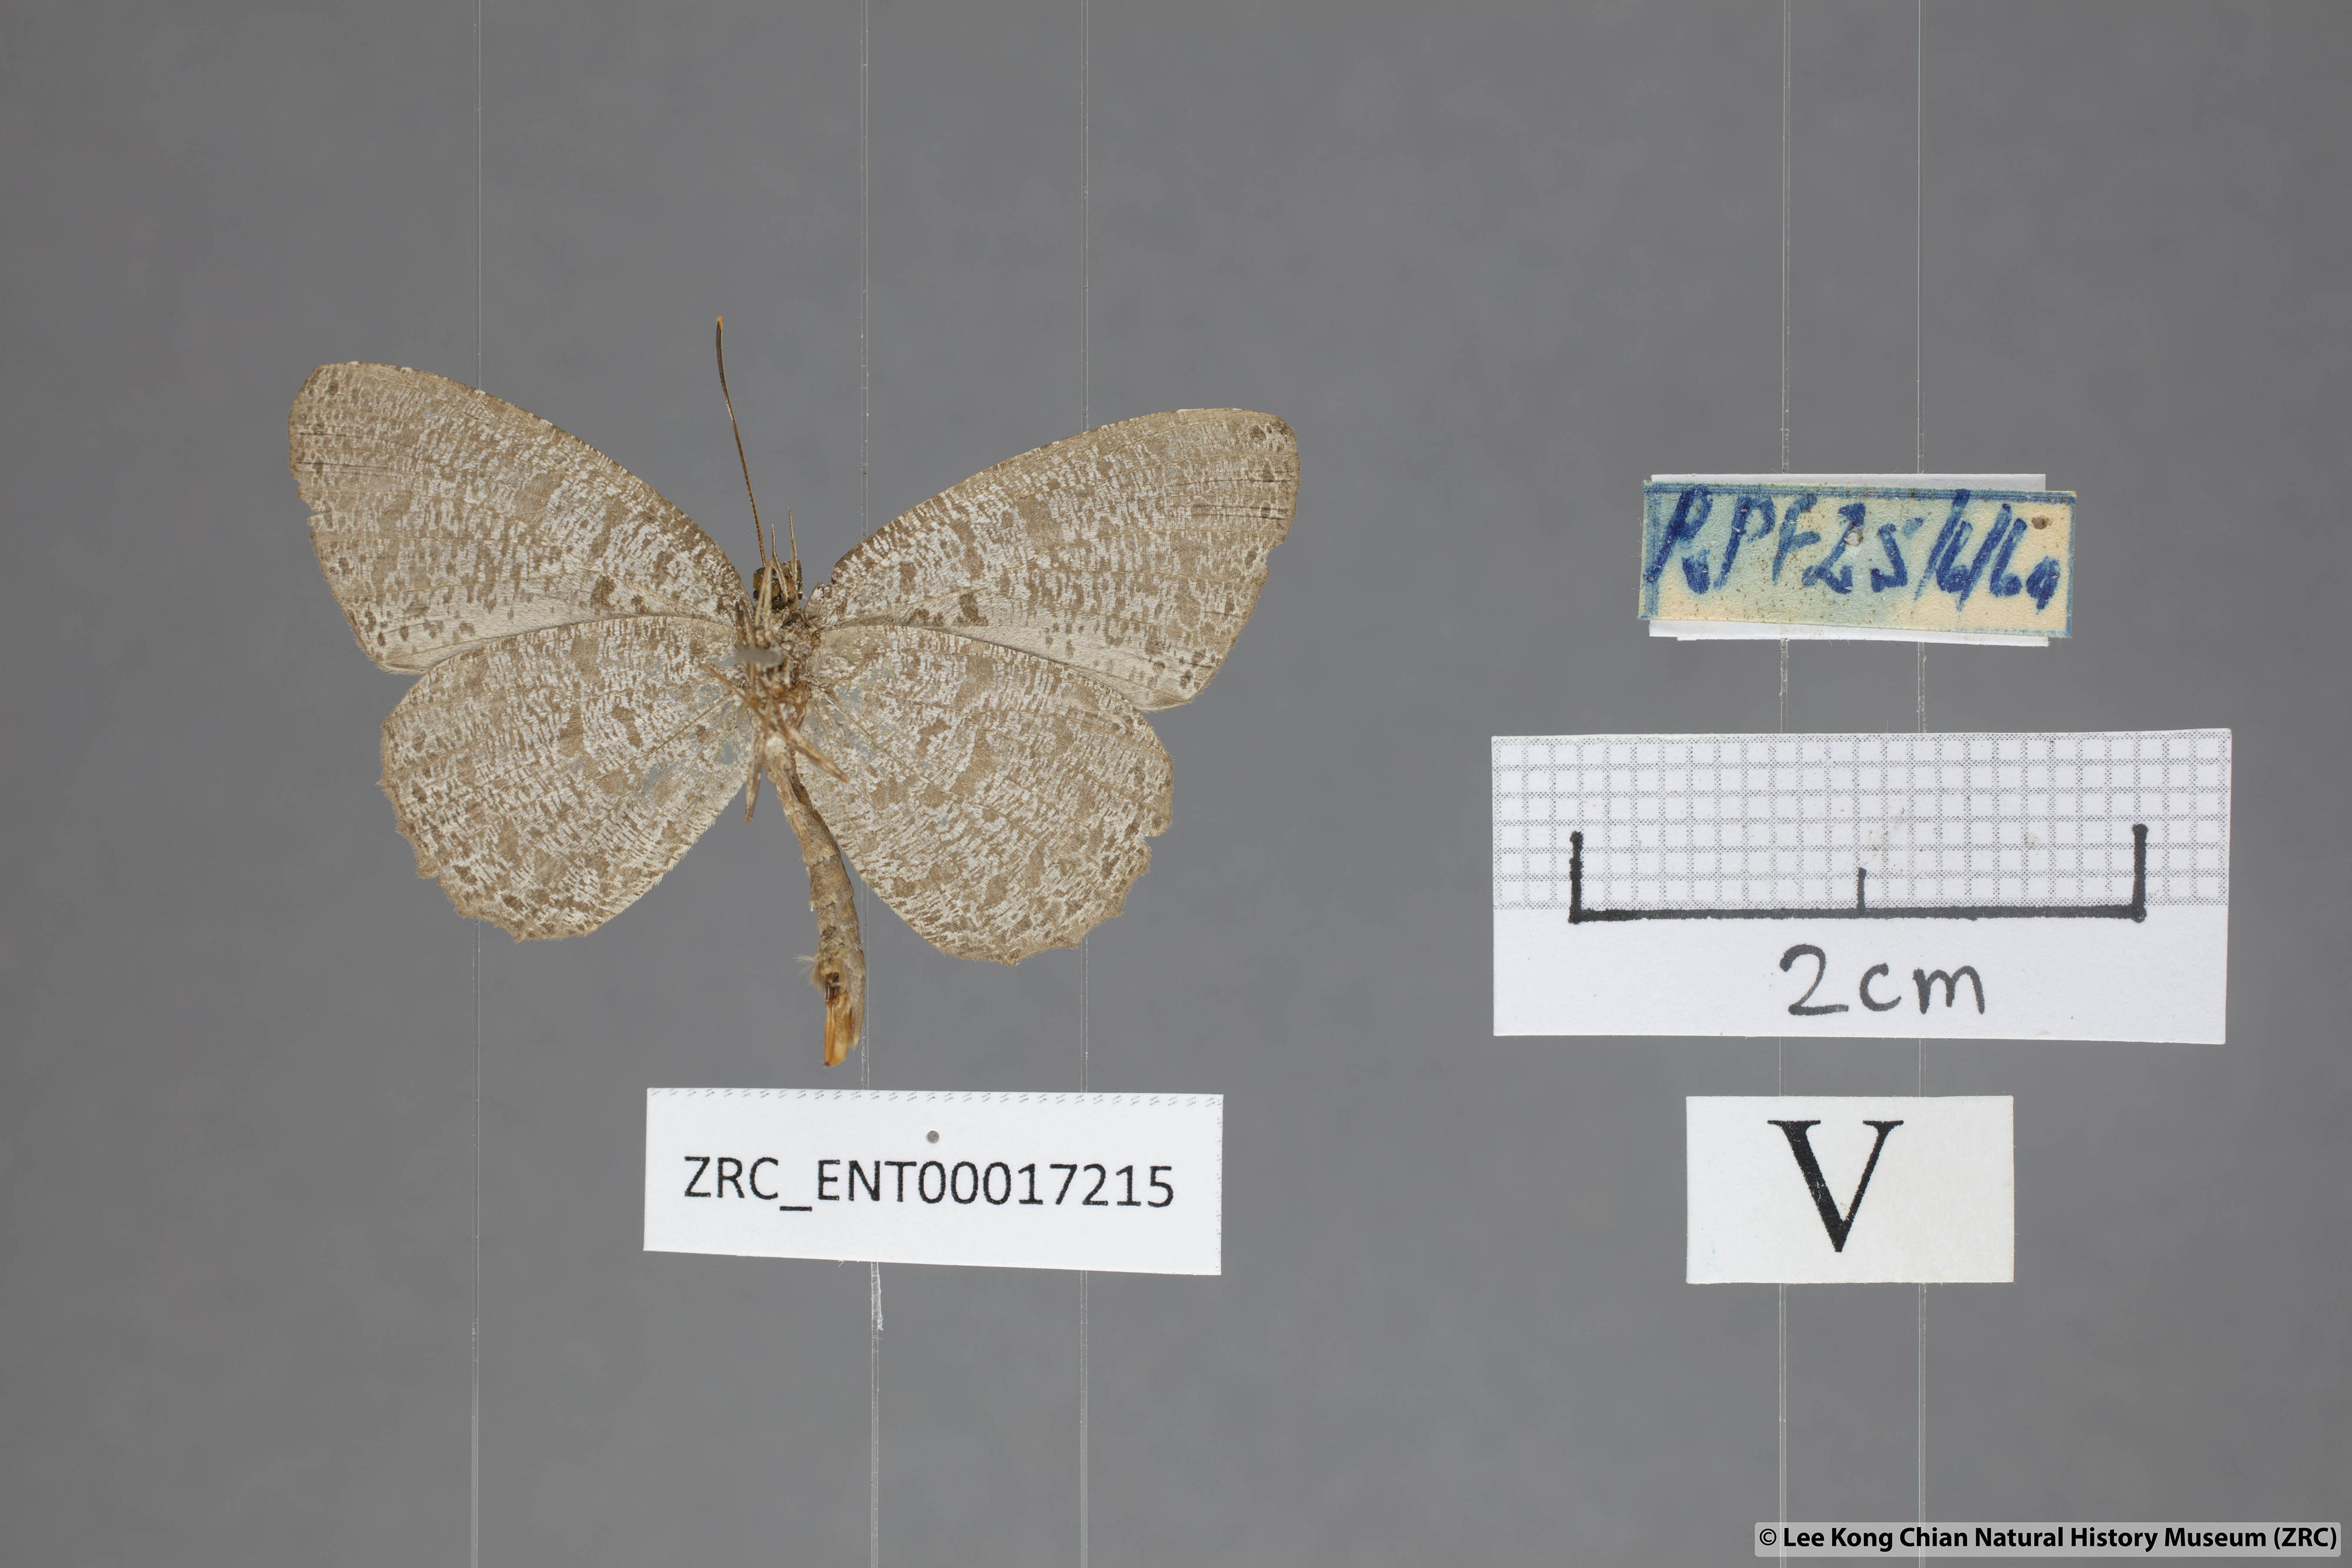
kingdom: Animalia
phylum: Arthropoda
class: Insecta
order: Lepidoptera
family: Lycaenidae
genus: Paragerydus
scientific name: Paragerydus horsfieldi
